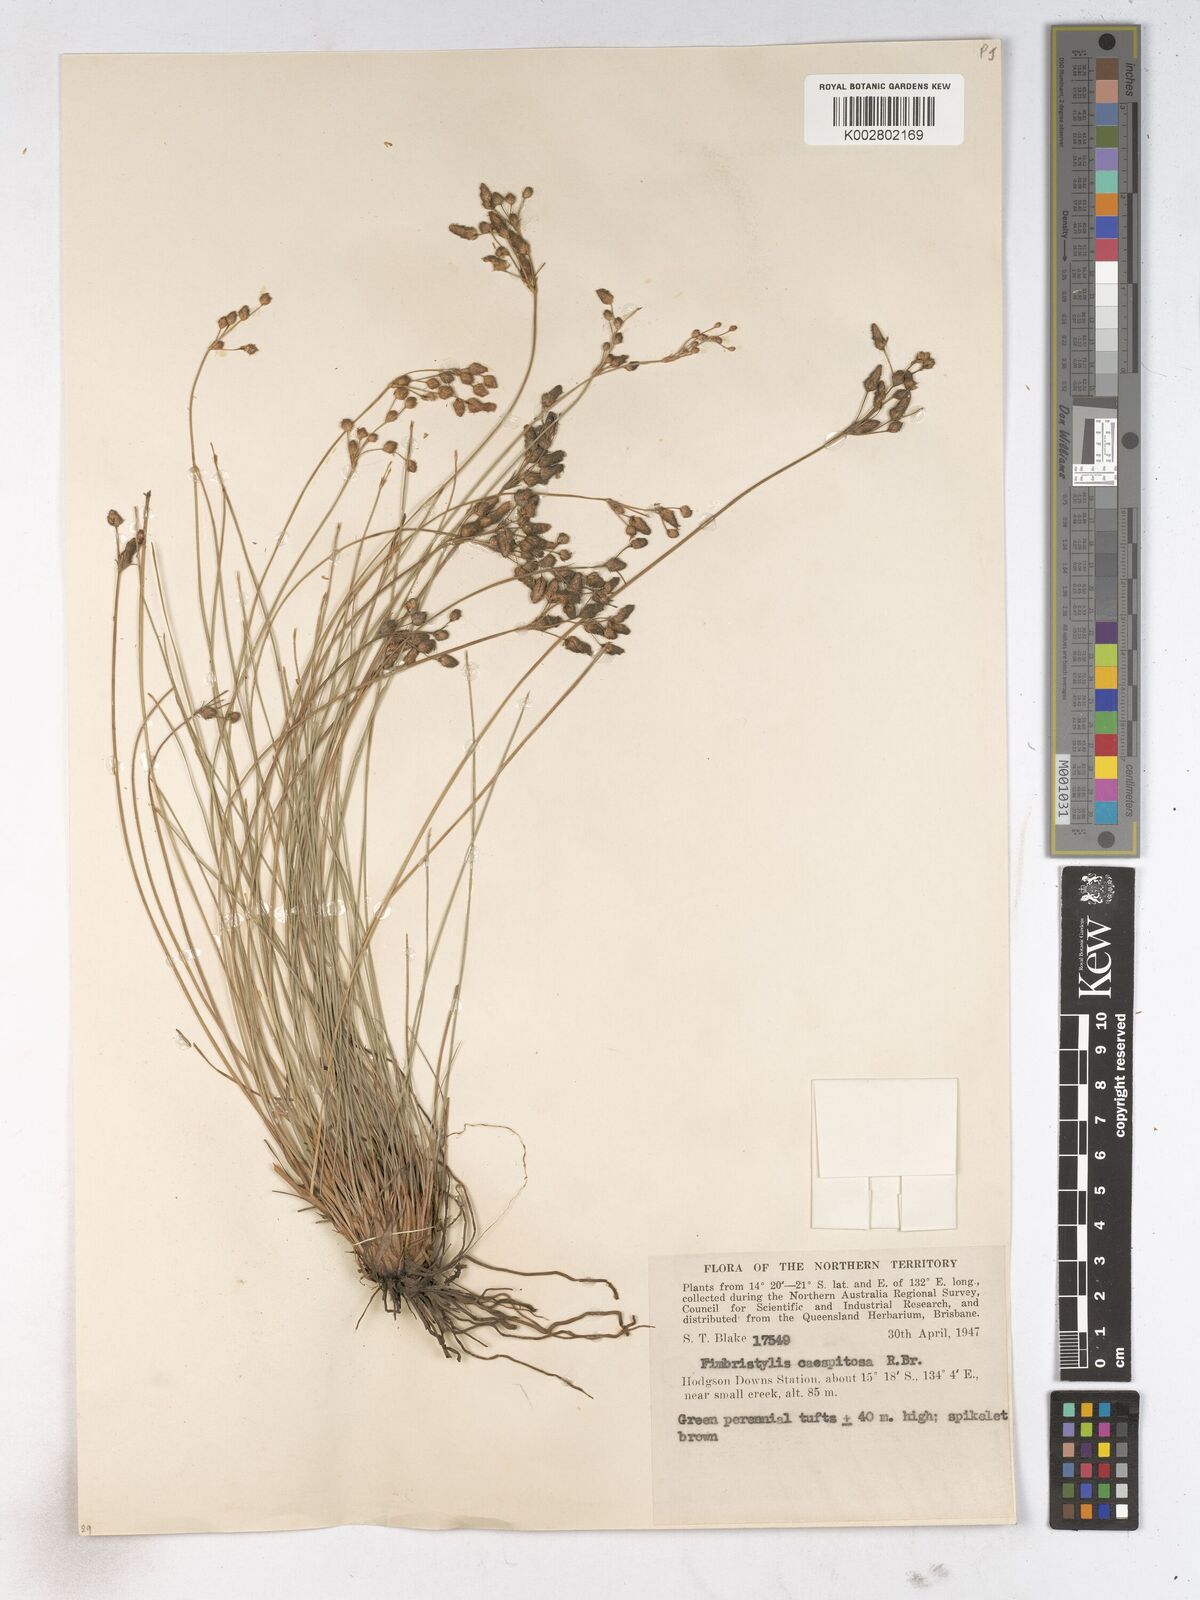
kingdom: Plantae
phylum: Tracheophyta
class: Liliopsida
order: Poales
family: Cyperaceae
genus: Fimbristylis
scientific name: Fimbristylis caespitosa
